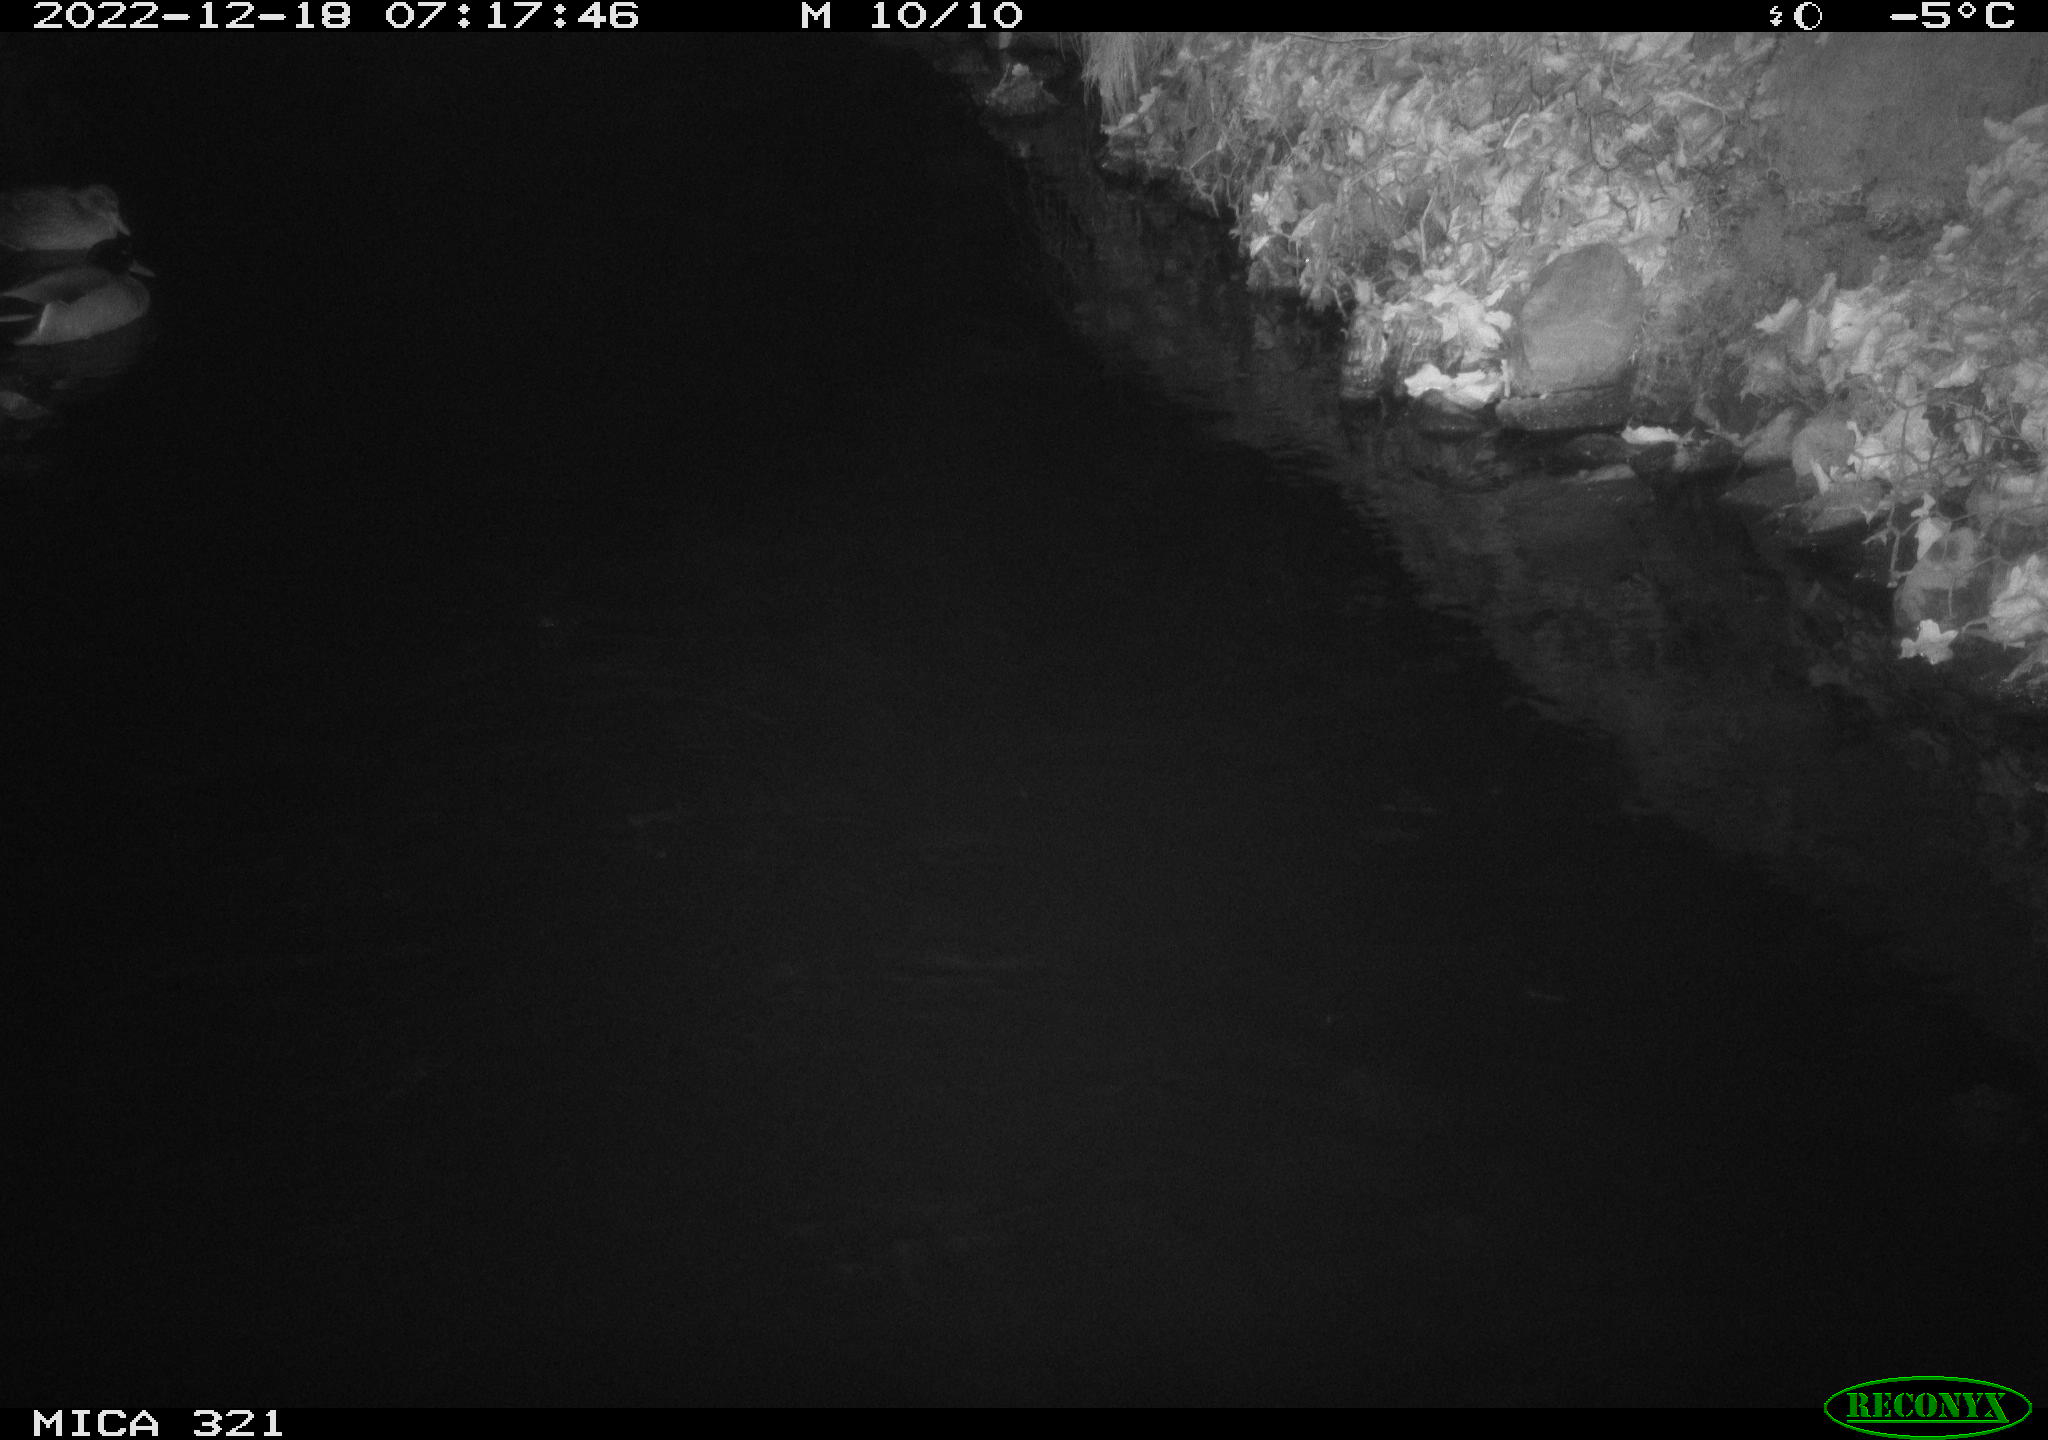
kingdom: Animalia
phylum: Chordata
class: Aves
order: Anseriformes
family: Anatidae
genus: Anas
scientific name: Anas
